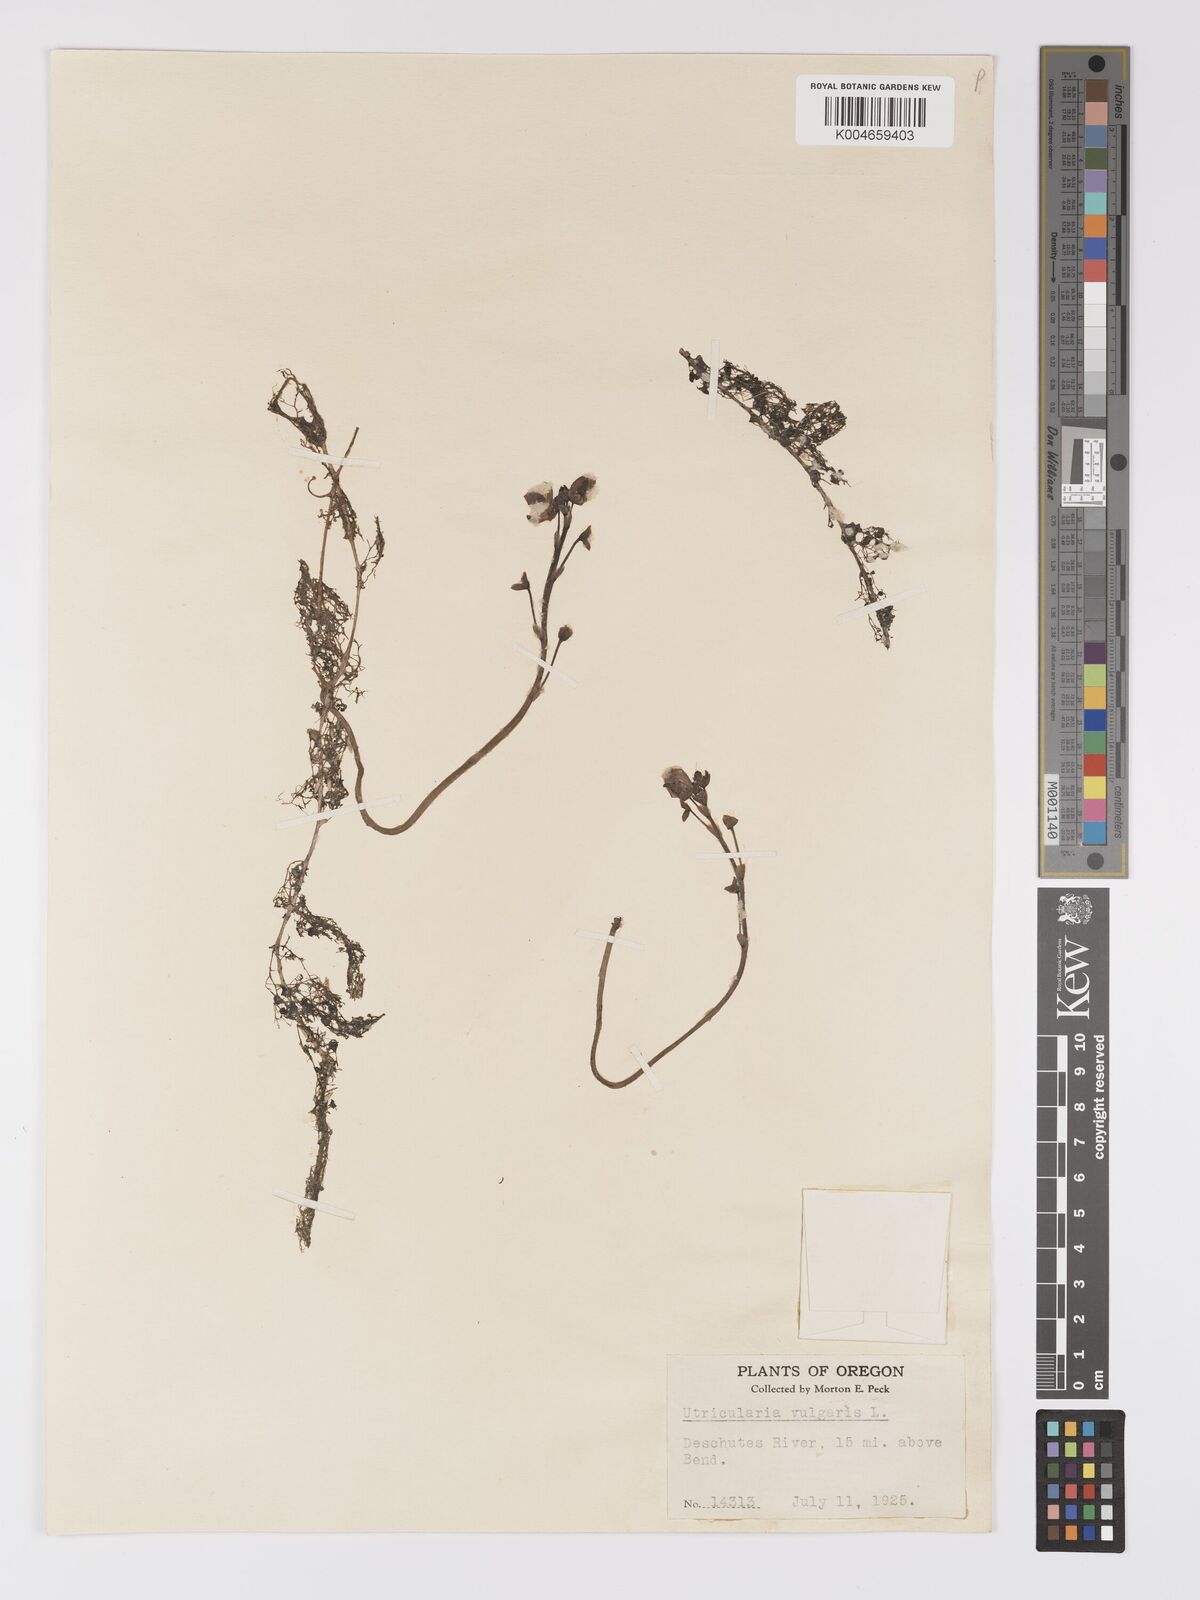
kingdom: Plantae
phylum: Tracheophyta
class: Magnoliopsida
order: Lamiales
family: Lentibulariaceae
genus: Utricularia
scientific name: Utricularia macrorhiza
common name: Common bladderwort
